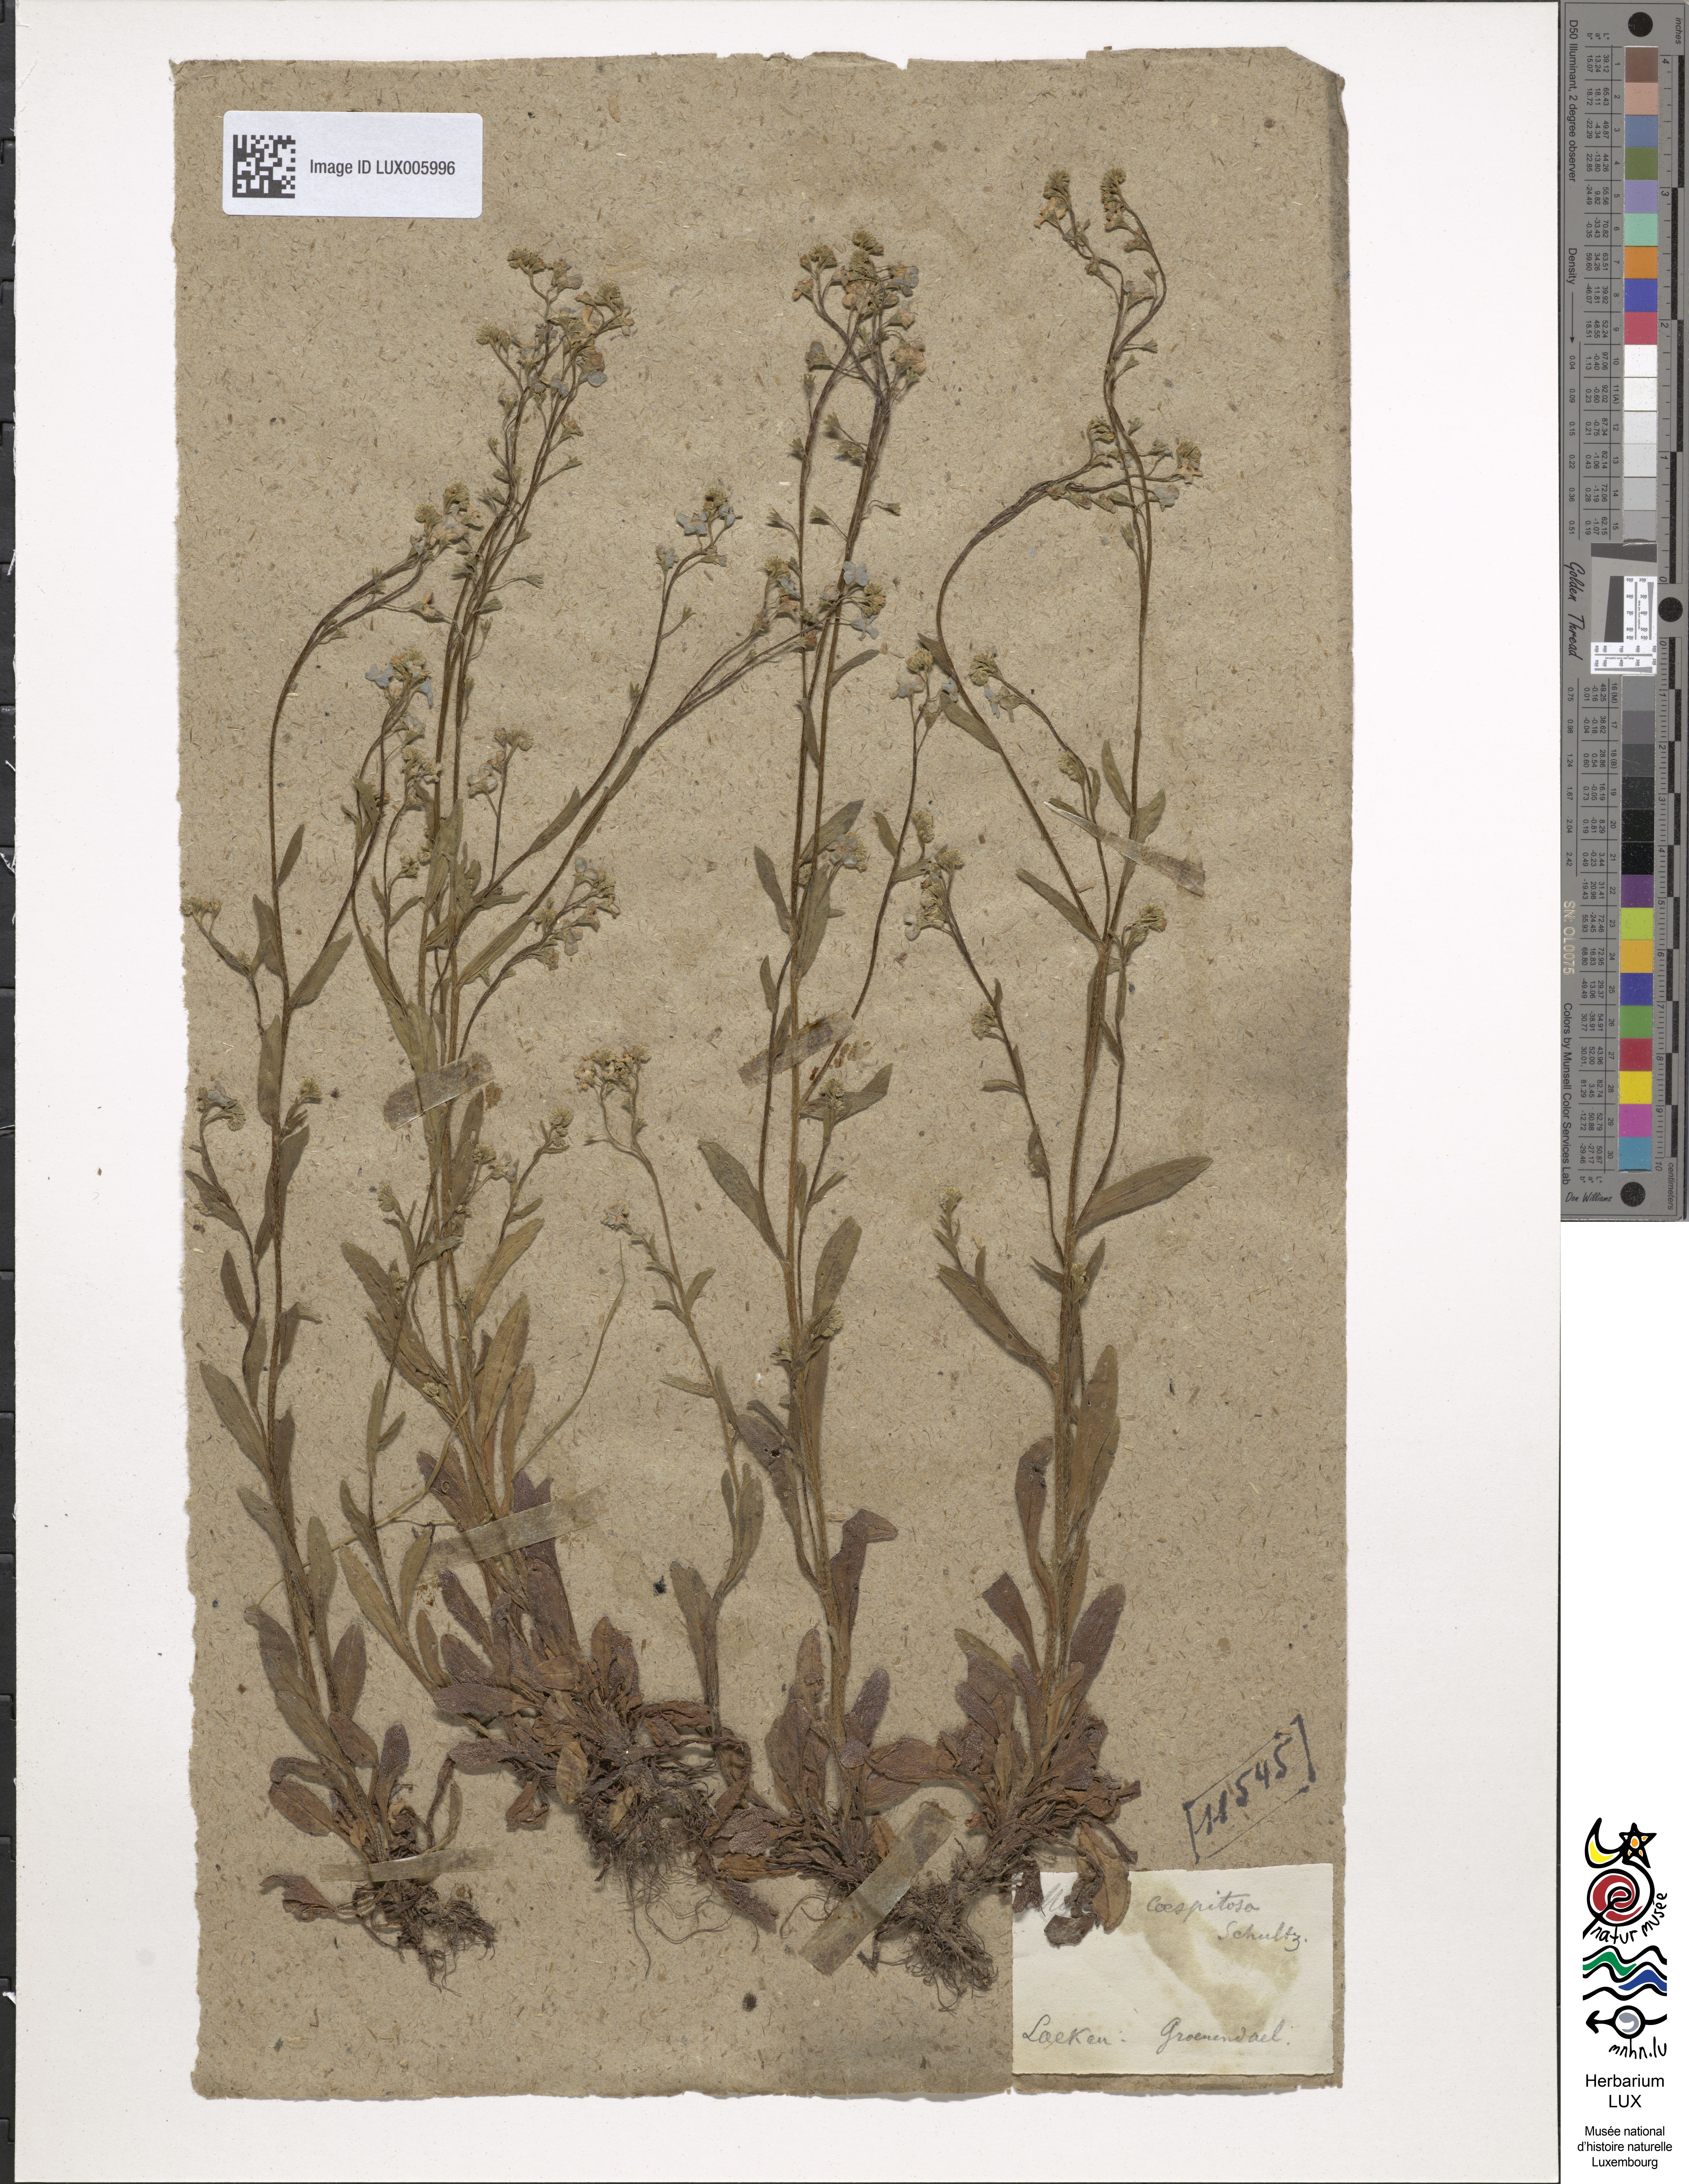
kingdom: Plantae
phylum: Tracheophyta
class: Magnoliopsida
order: Boraginales
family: Boraginaceae
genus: Myosotis
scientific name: Myosotis laxa
